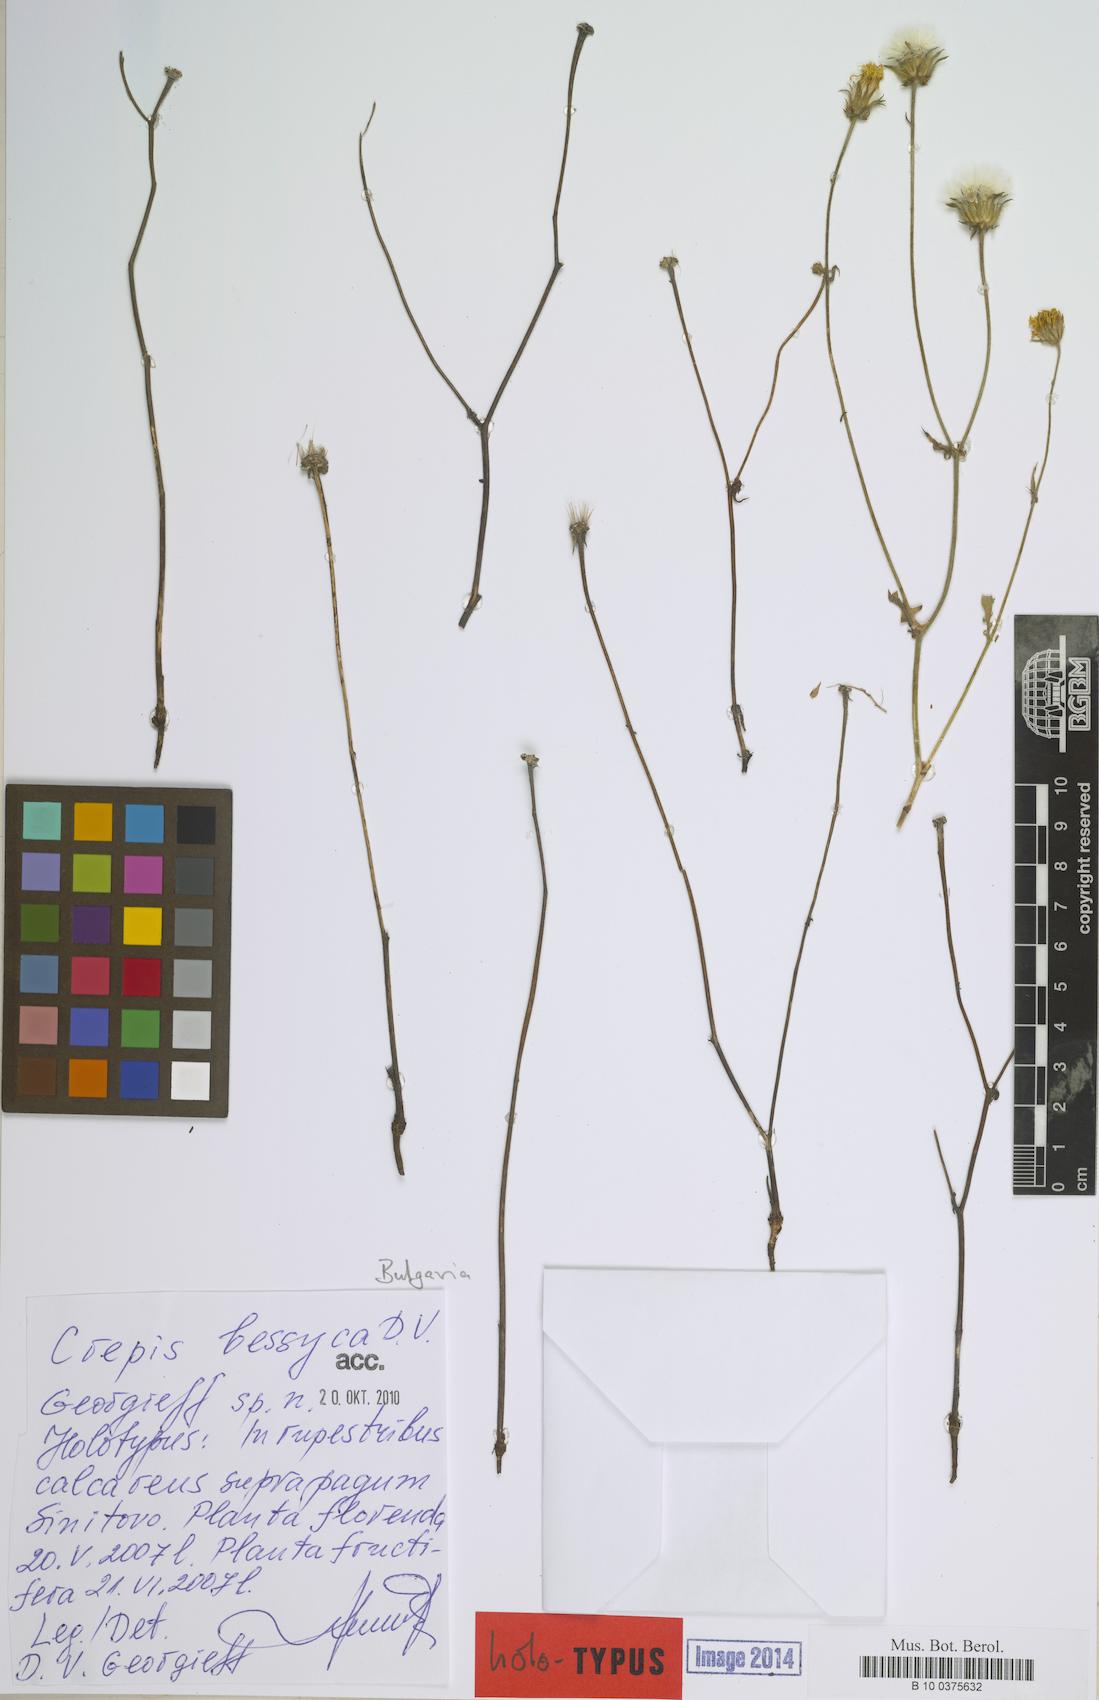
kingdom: Plantae
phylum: Tracheophyta
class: Magnoliopsida
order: Asterales
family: Asteraceae
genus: Crepis
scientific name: Crepis
